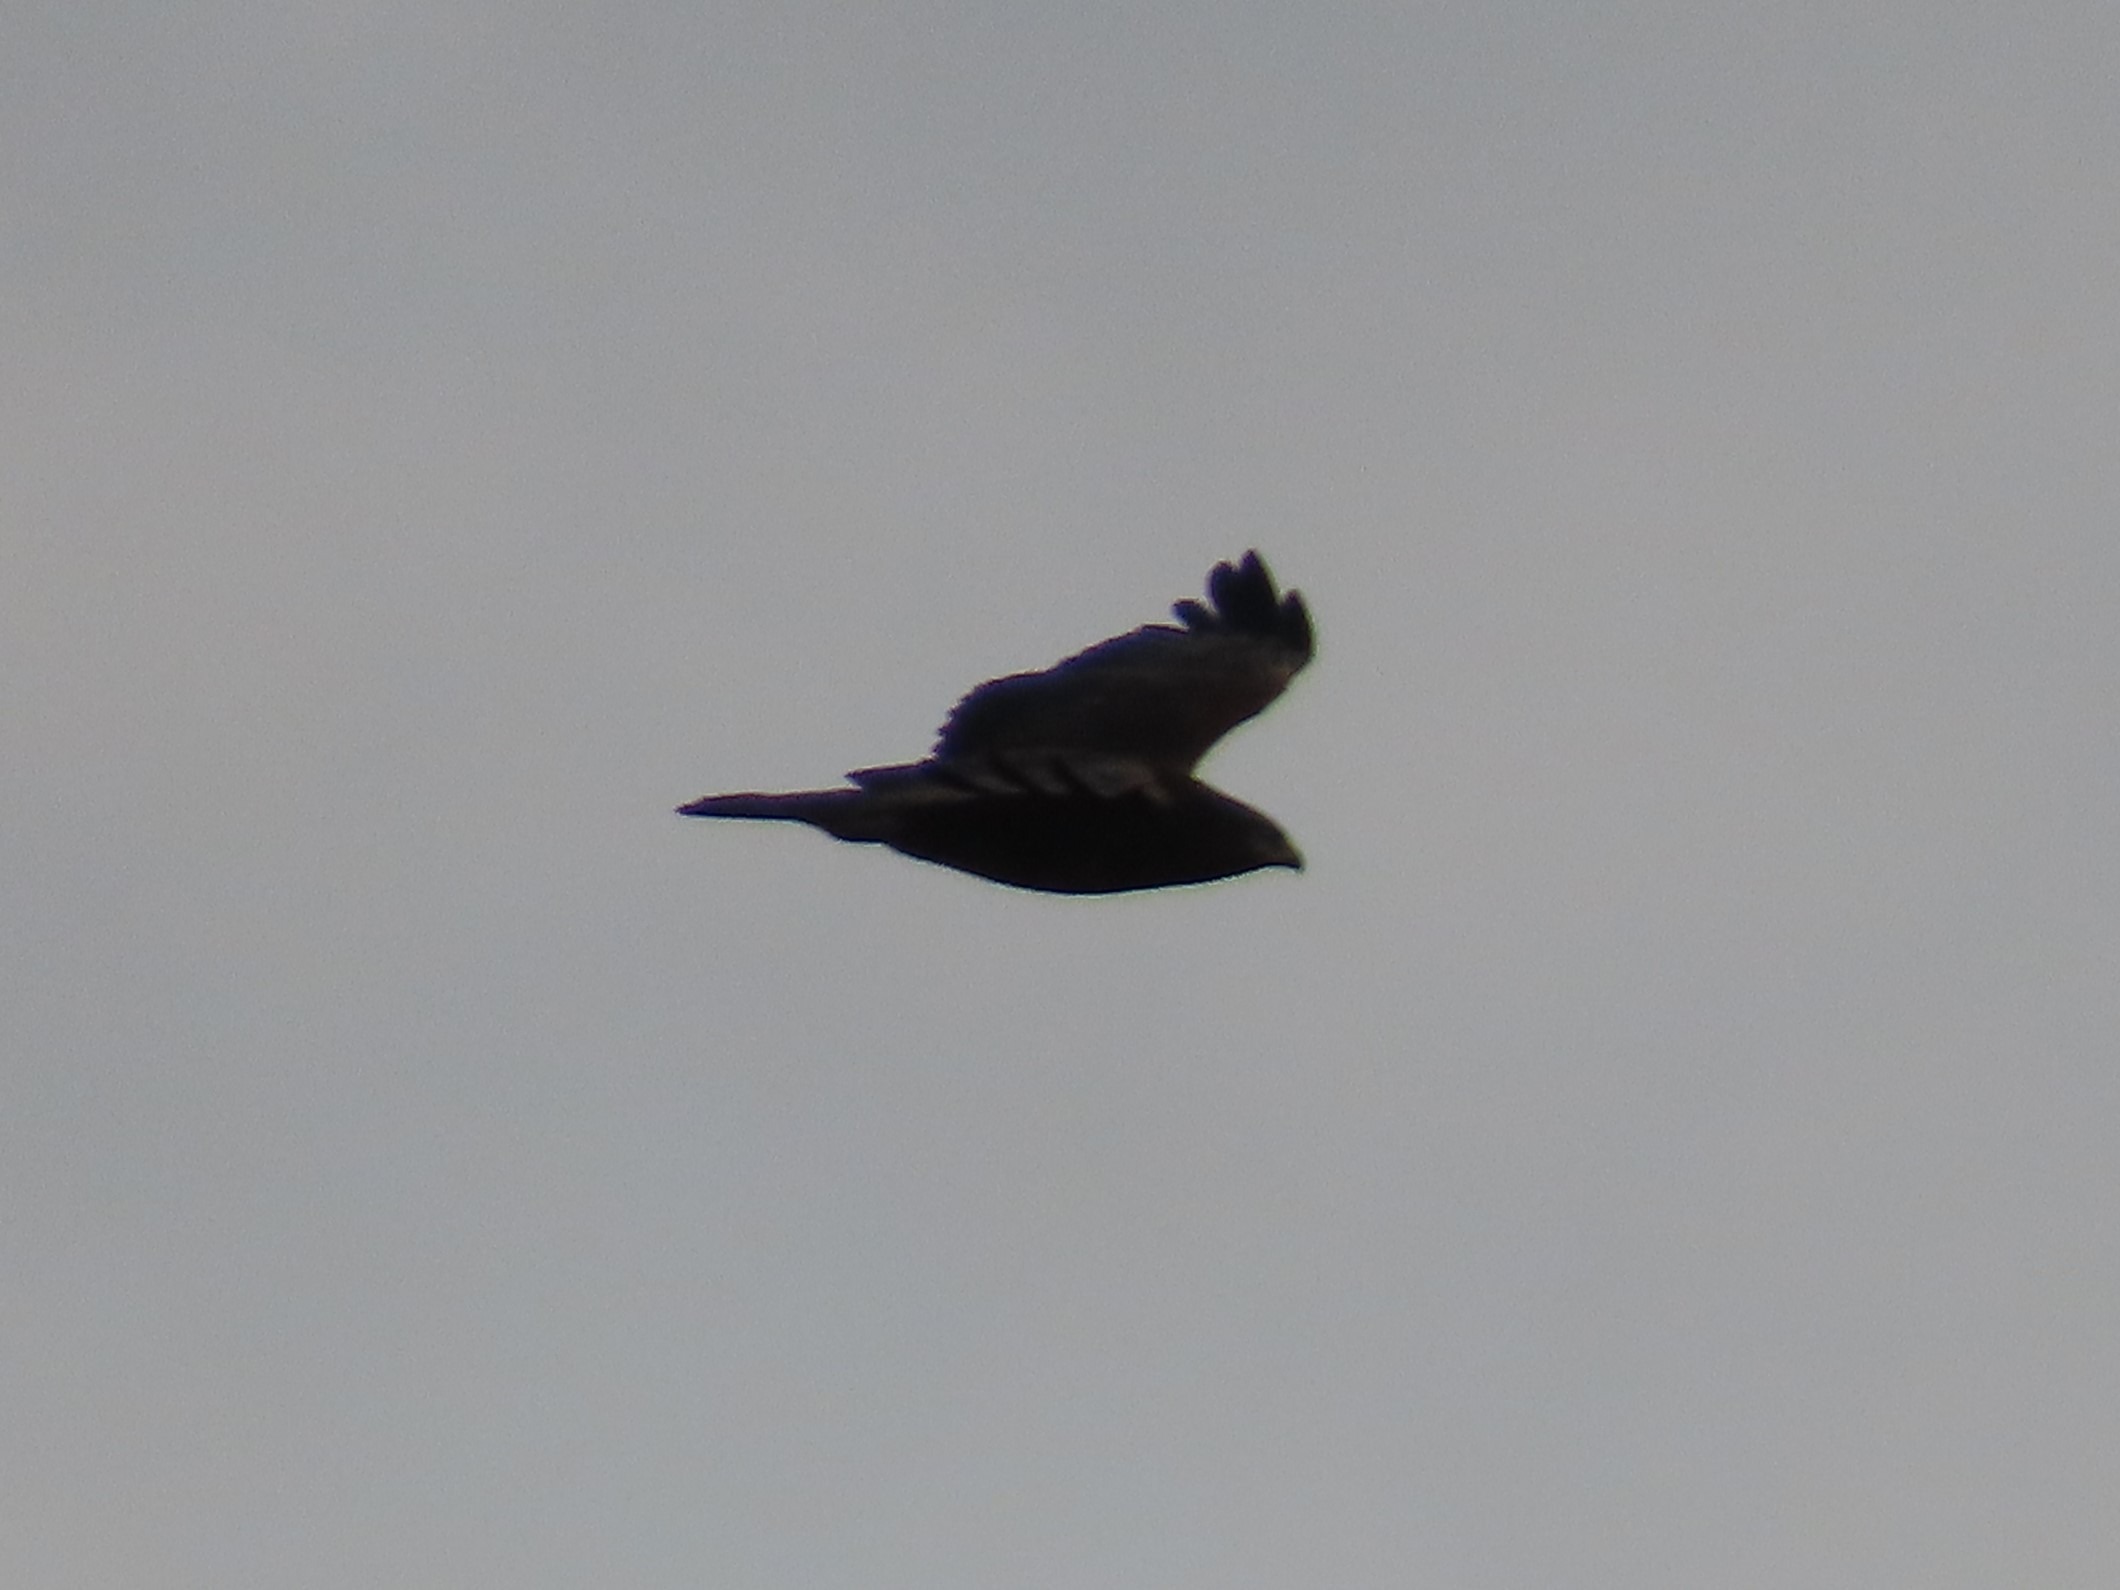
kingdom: Animalia
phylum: Chordata
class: Aves
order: Accipitriformes
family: Accipitridae
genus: Buteo
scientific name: Buteo buteo
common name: Musvåge
